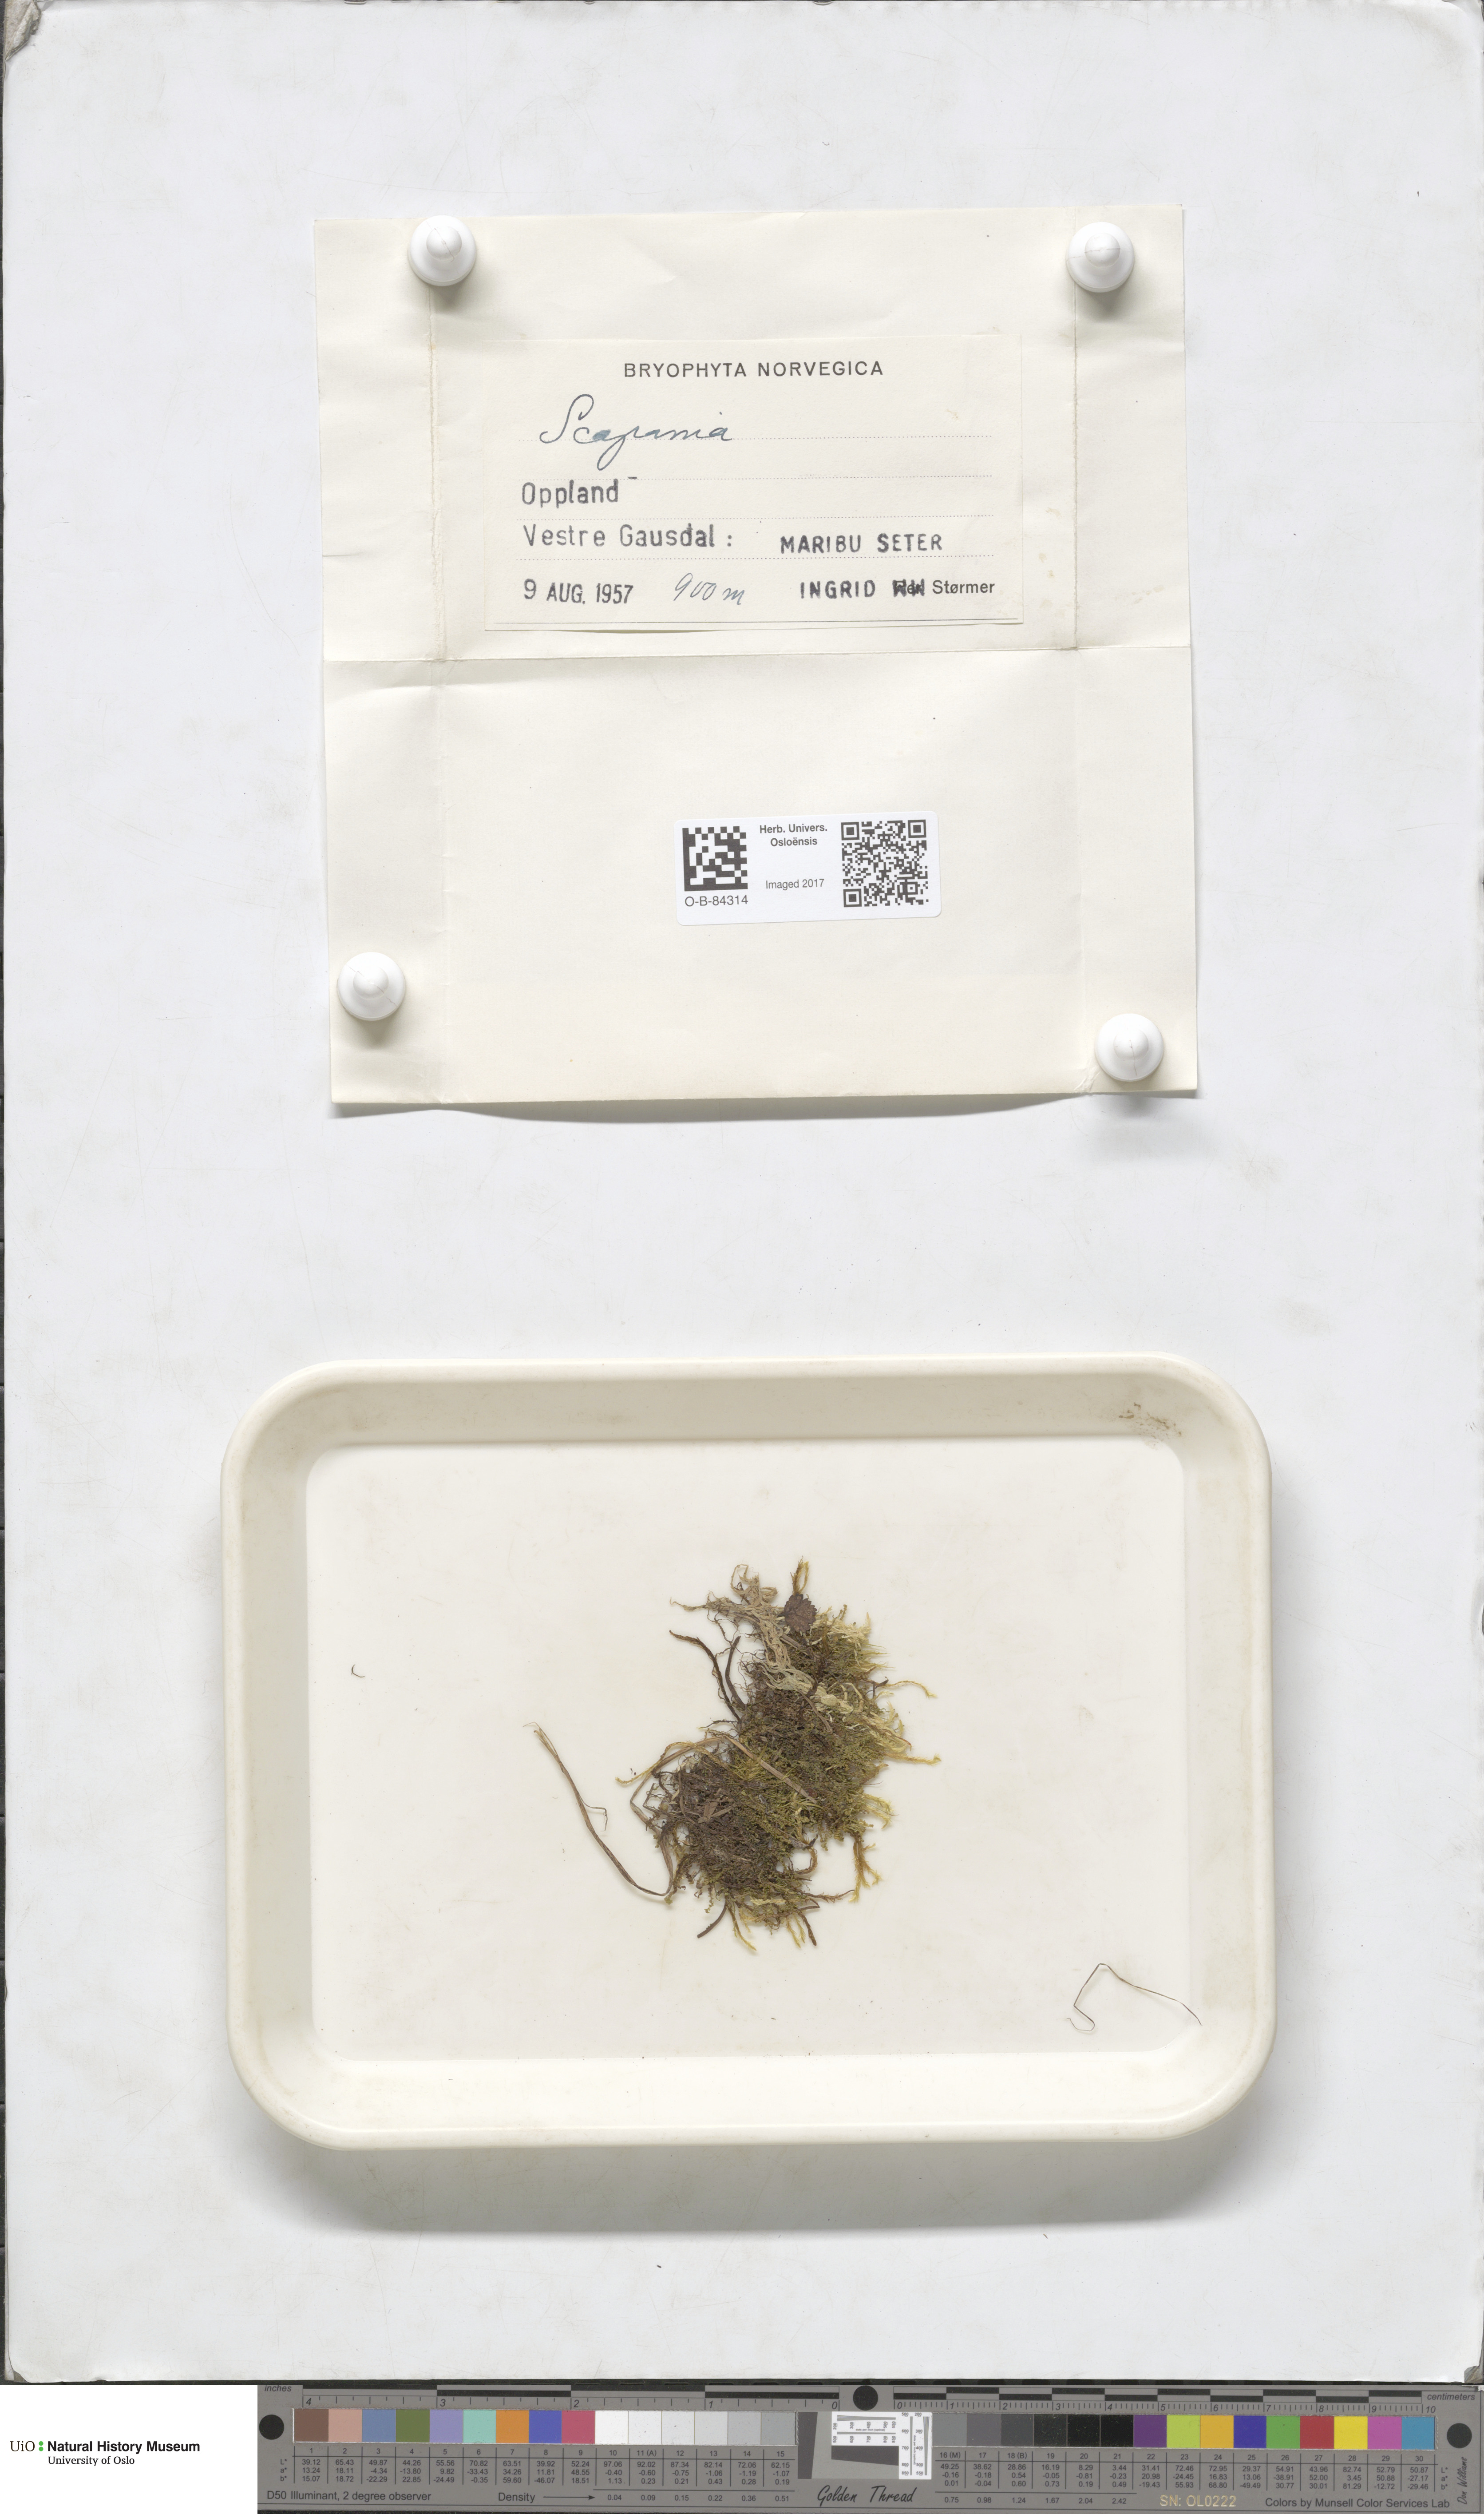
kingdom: Plantae
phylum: Marchantiophyta
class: Jungermanniopsida
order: Jungermanniales
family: Scapaniaceae
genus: Scapania
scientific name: Scapania
